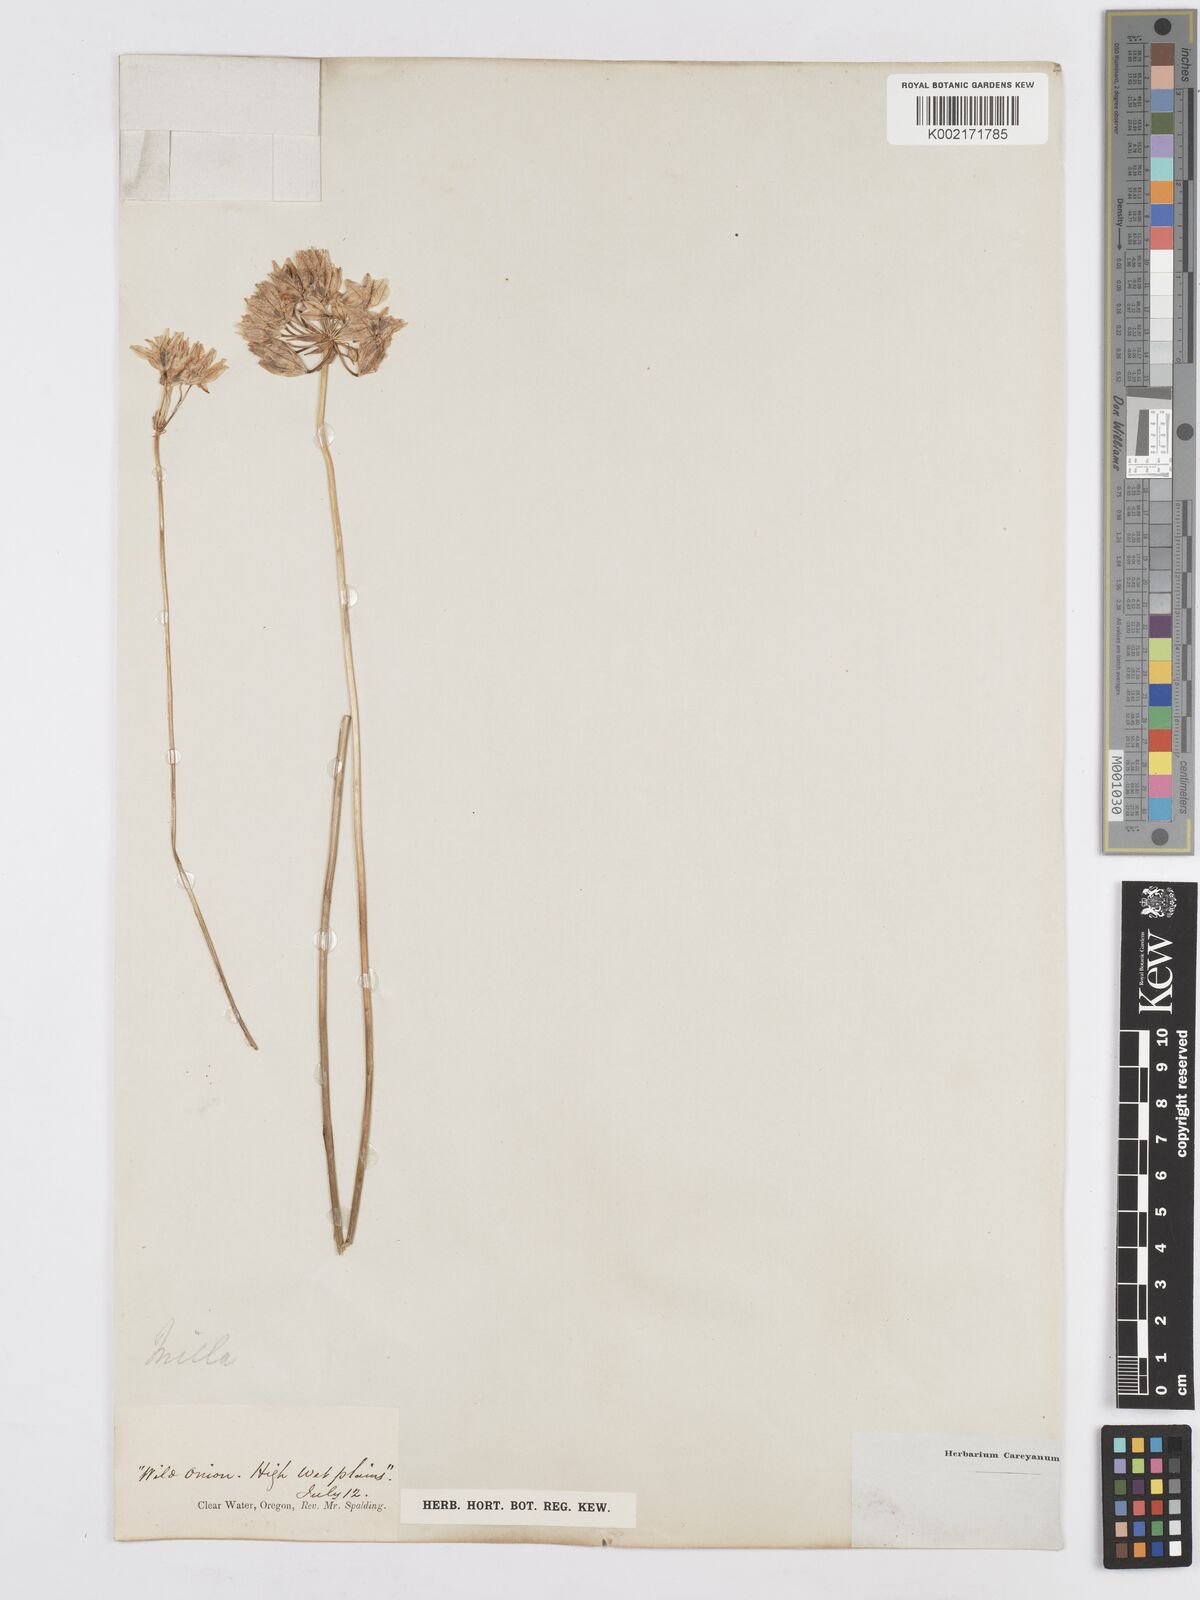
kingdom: Plantae
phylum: Tracheophyta
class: Liliopsida
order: Asparagales
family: Asparagaceae
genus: Triteleia
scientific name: Triteleia hyacinthina
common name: White brodiaea
